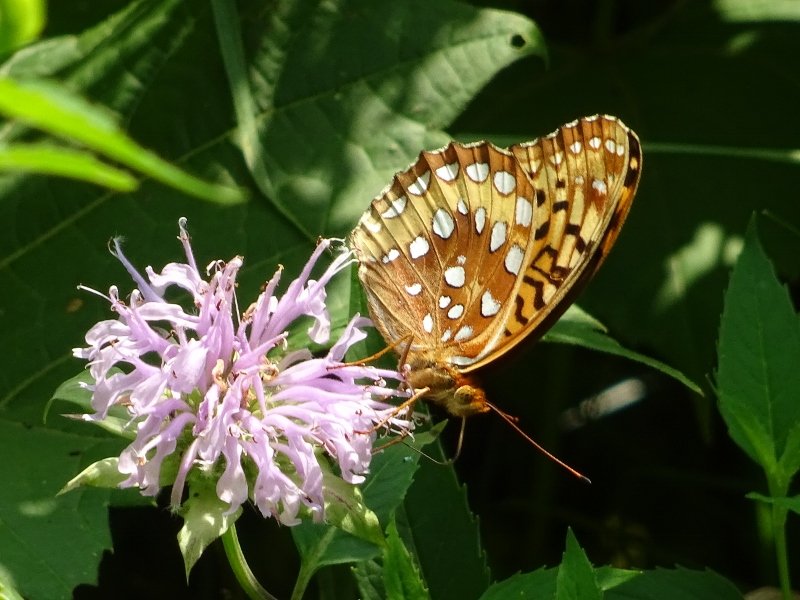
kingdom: Animalia
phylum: Arthropoda
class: Insecta
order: Lepidoptera
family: Nymphalidae
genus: Speyeria
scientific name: Speyeria cybele
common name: Great Spangled Fritillary
